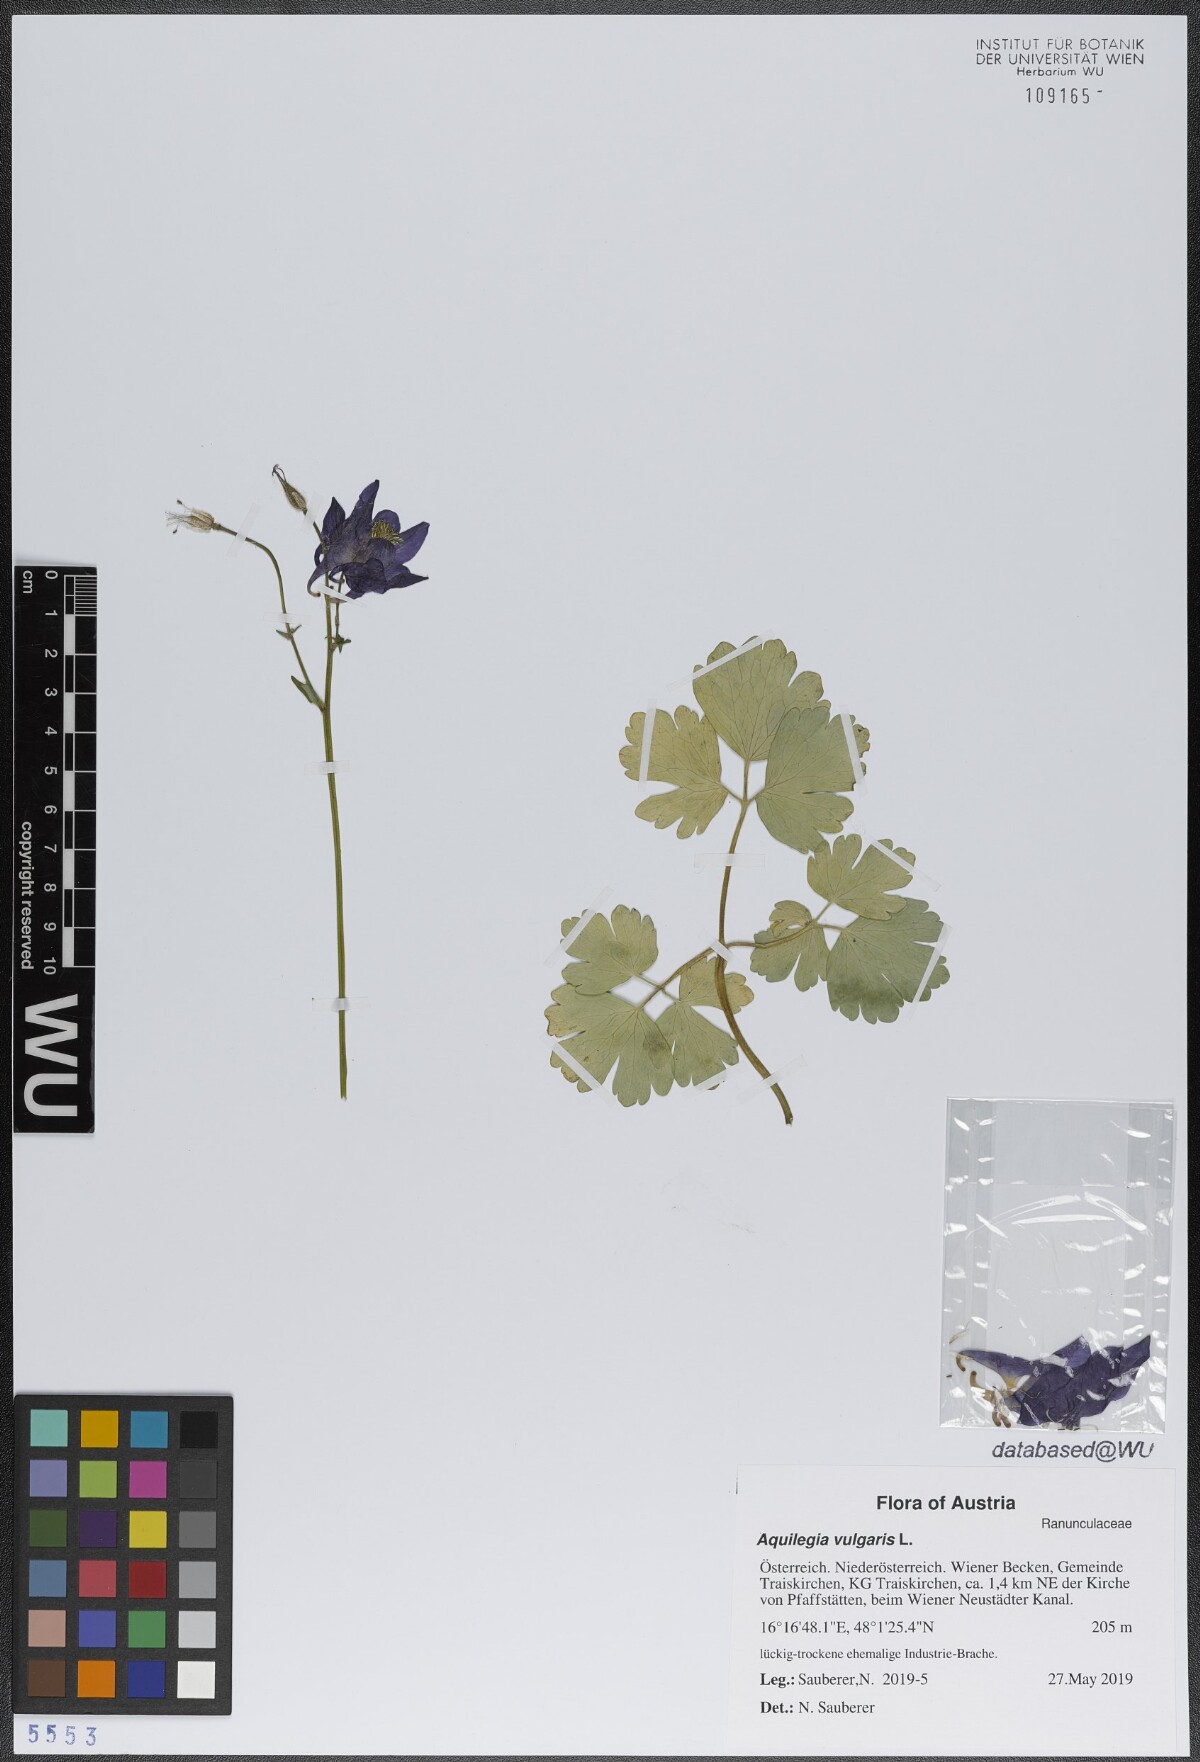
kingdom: Plantae
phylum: Tracheophyta
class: Magnoliopsida
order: Ranunculales
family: Ranunculaceae
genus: Aquilegia
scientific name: Aquilegia vulgaris
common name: Columbine
